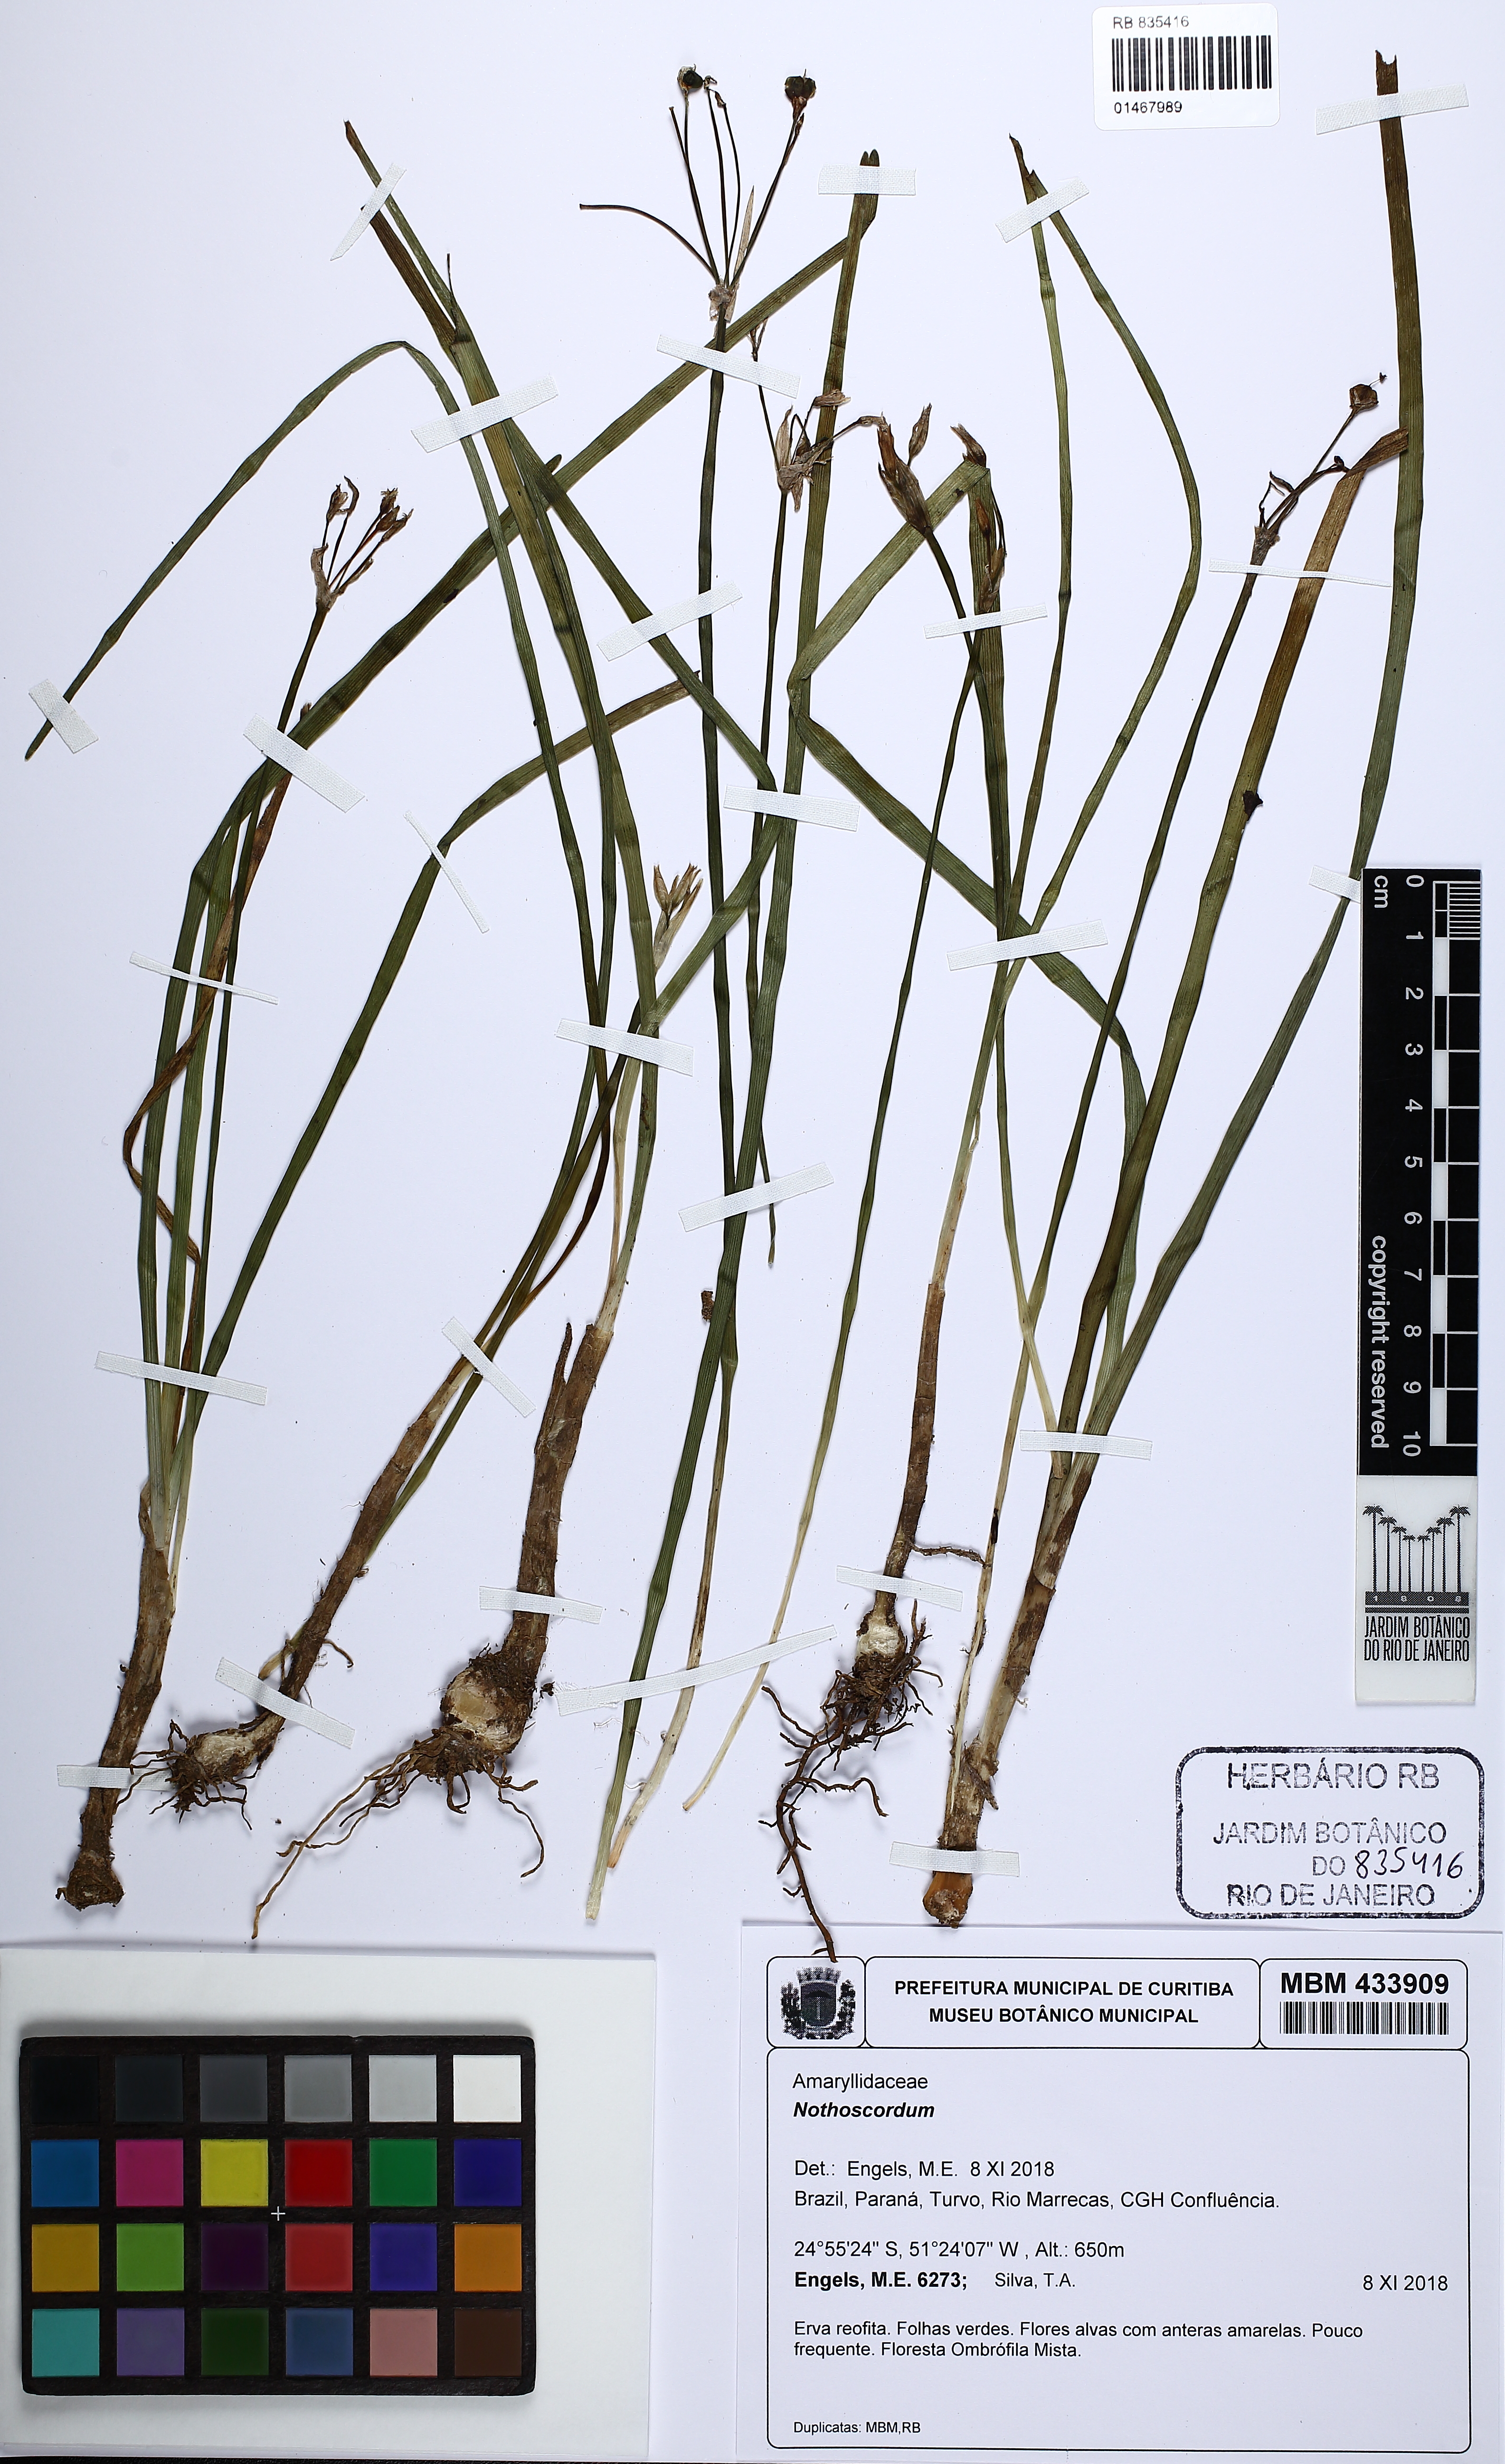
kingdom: Plantae
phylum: Tracheophyta
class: Liliopsida
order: Asparagales
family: Amaryllidaceae
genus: Nothoscordum
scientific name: Nothoscordum
